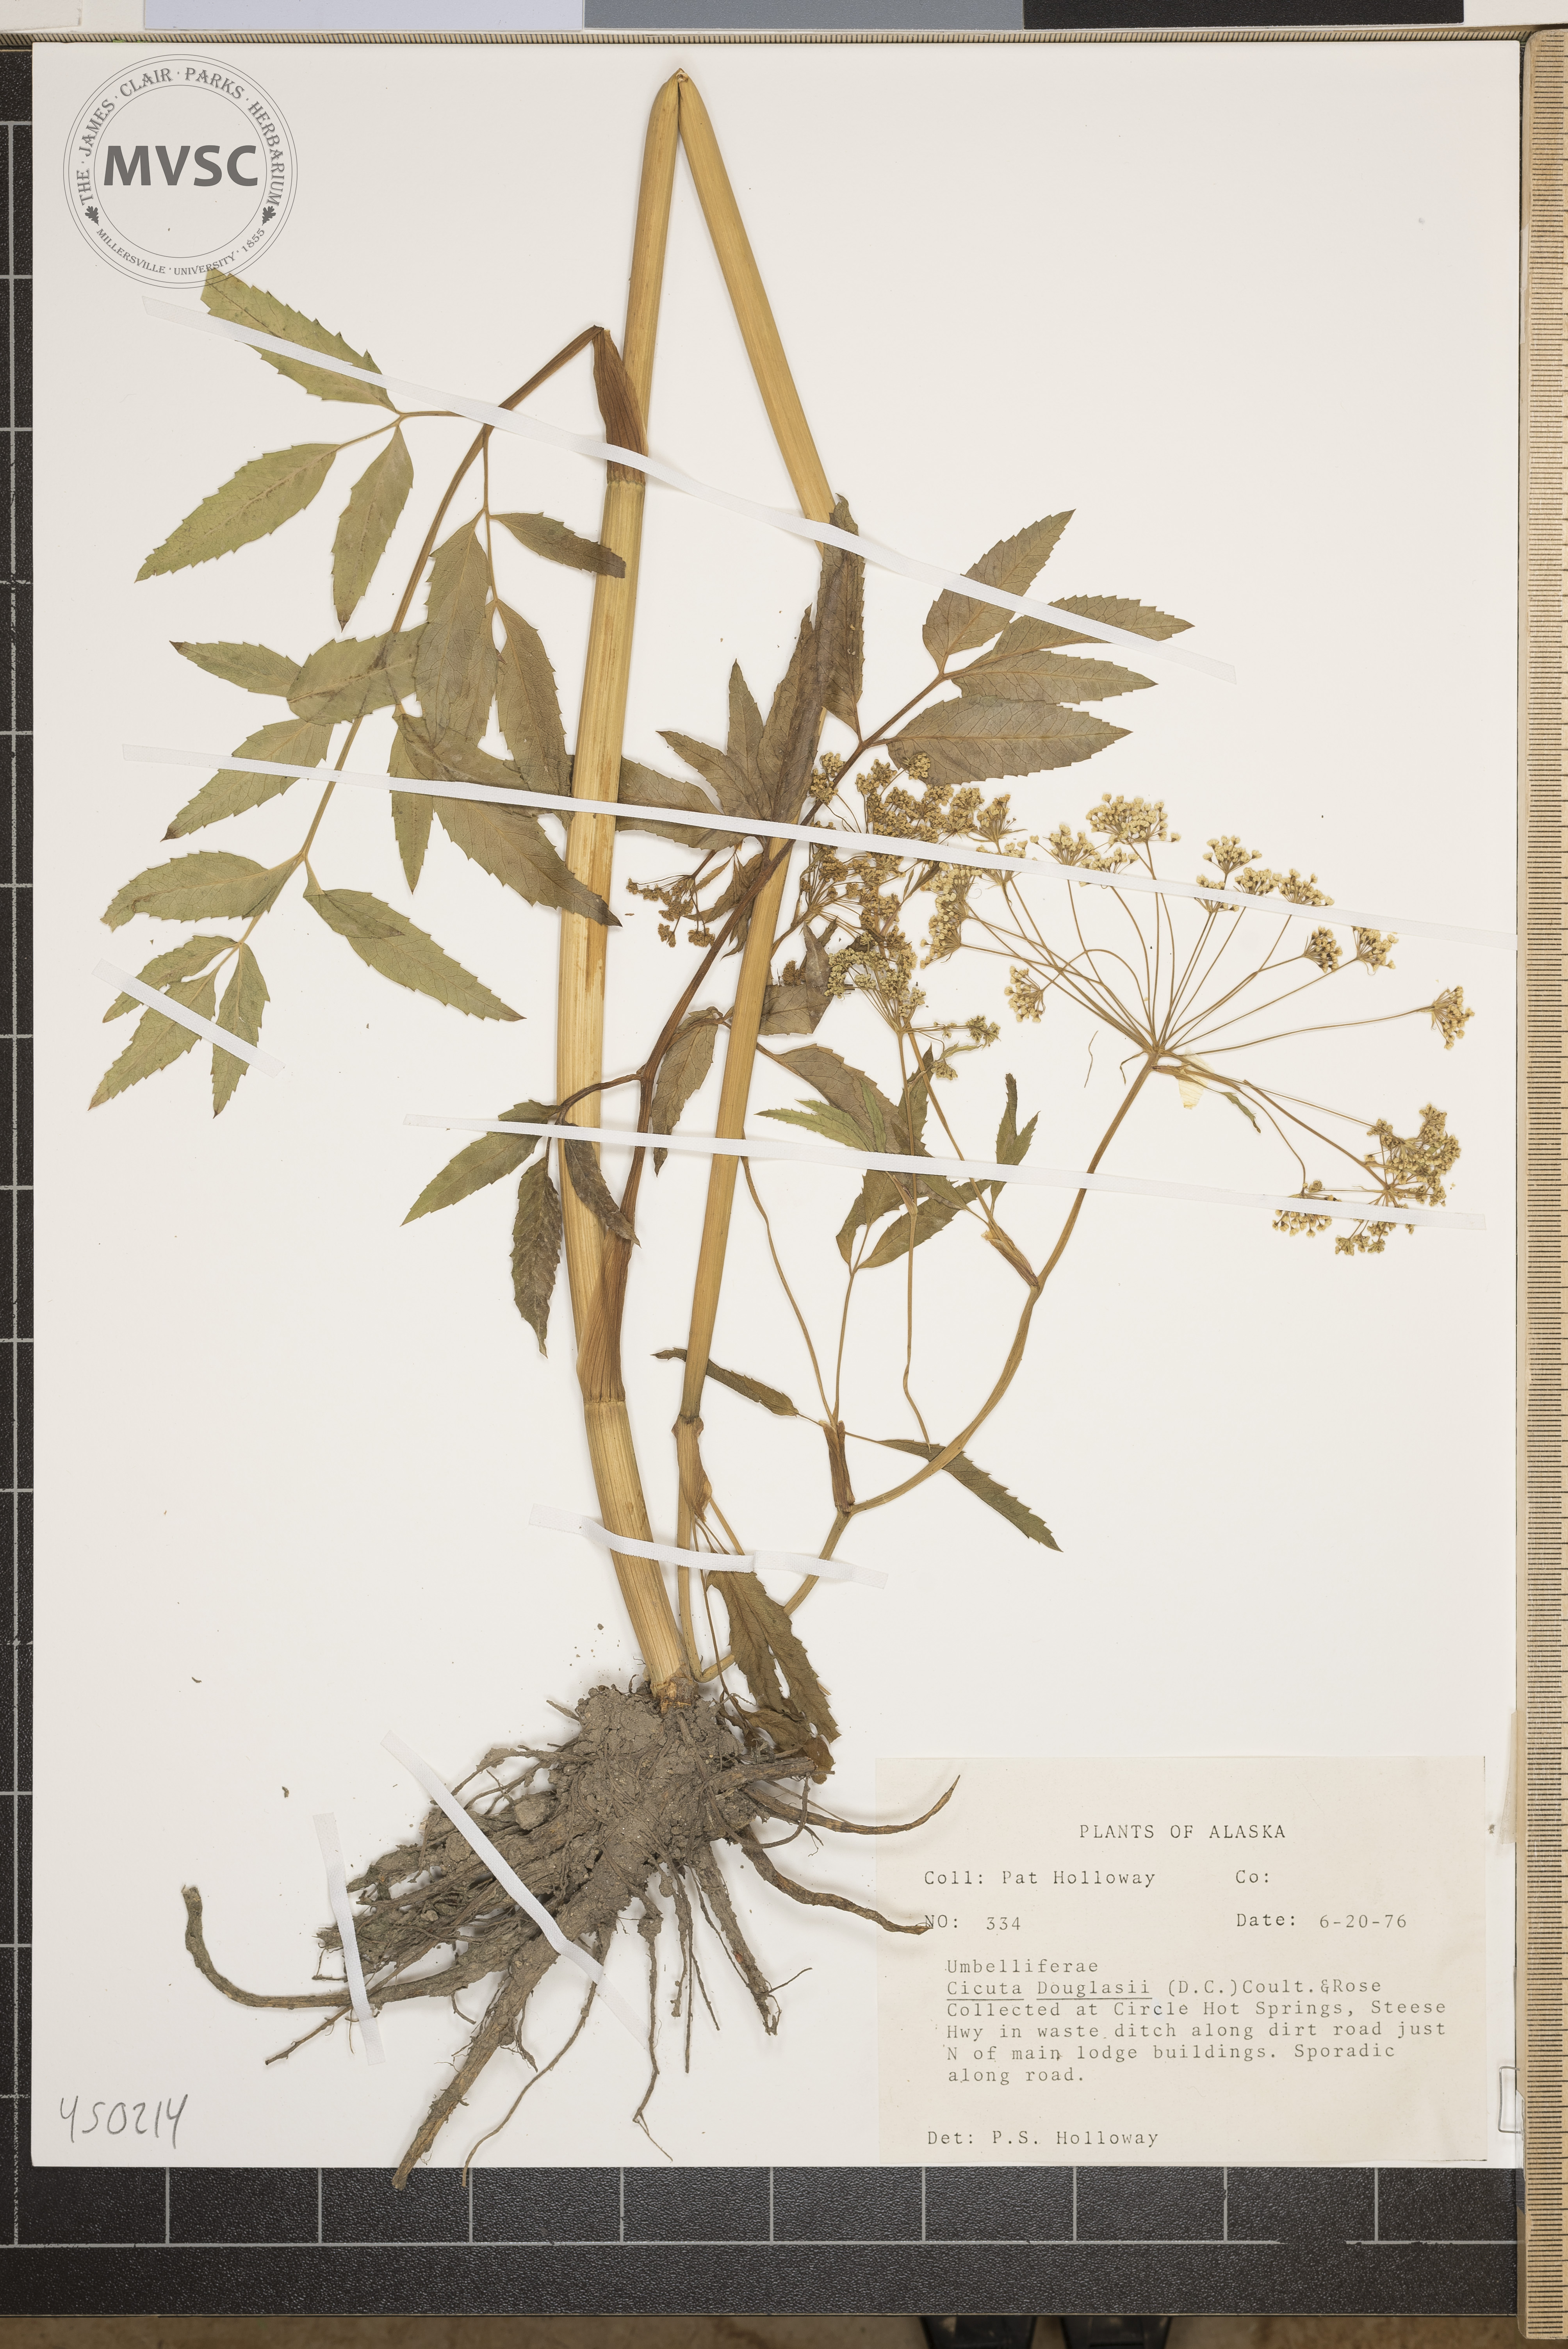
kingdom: Plantae
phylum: Tracheophyta
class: Magnoliopsida
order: Apiales
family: Apiaceae
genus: Cicuta
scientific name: Cicuta douglasii
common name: Western water-hemlock
